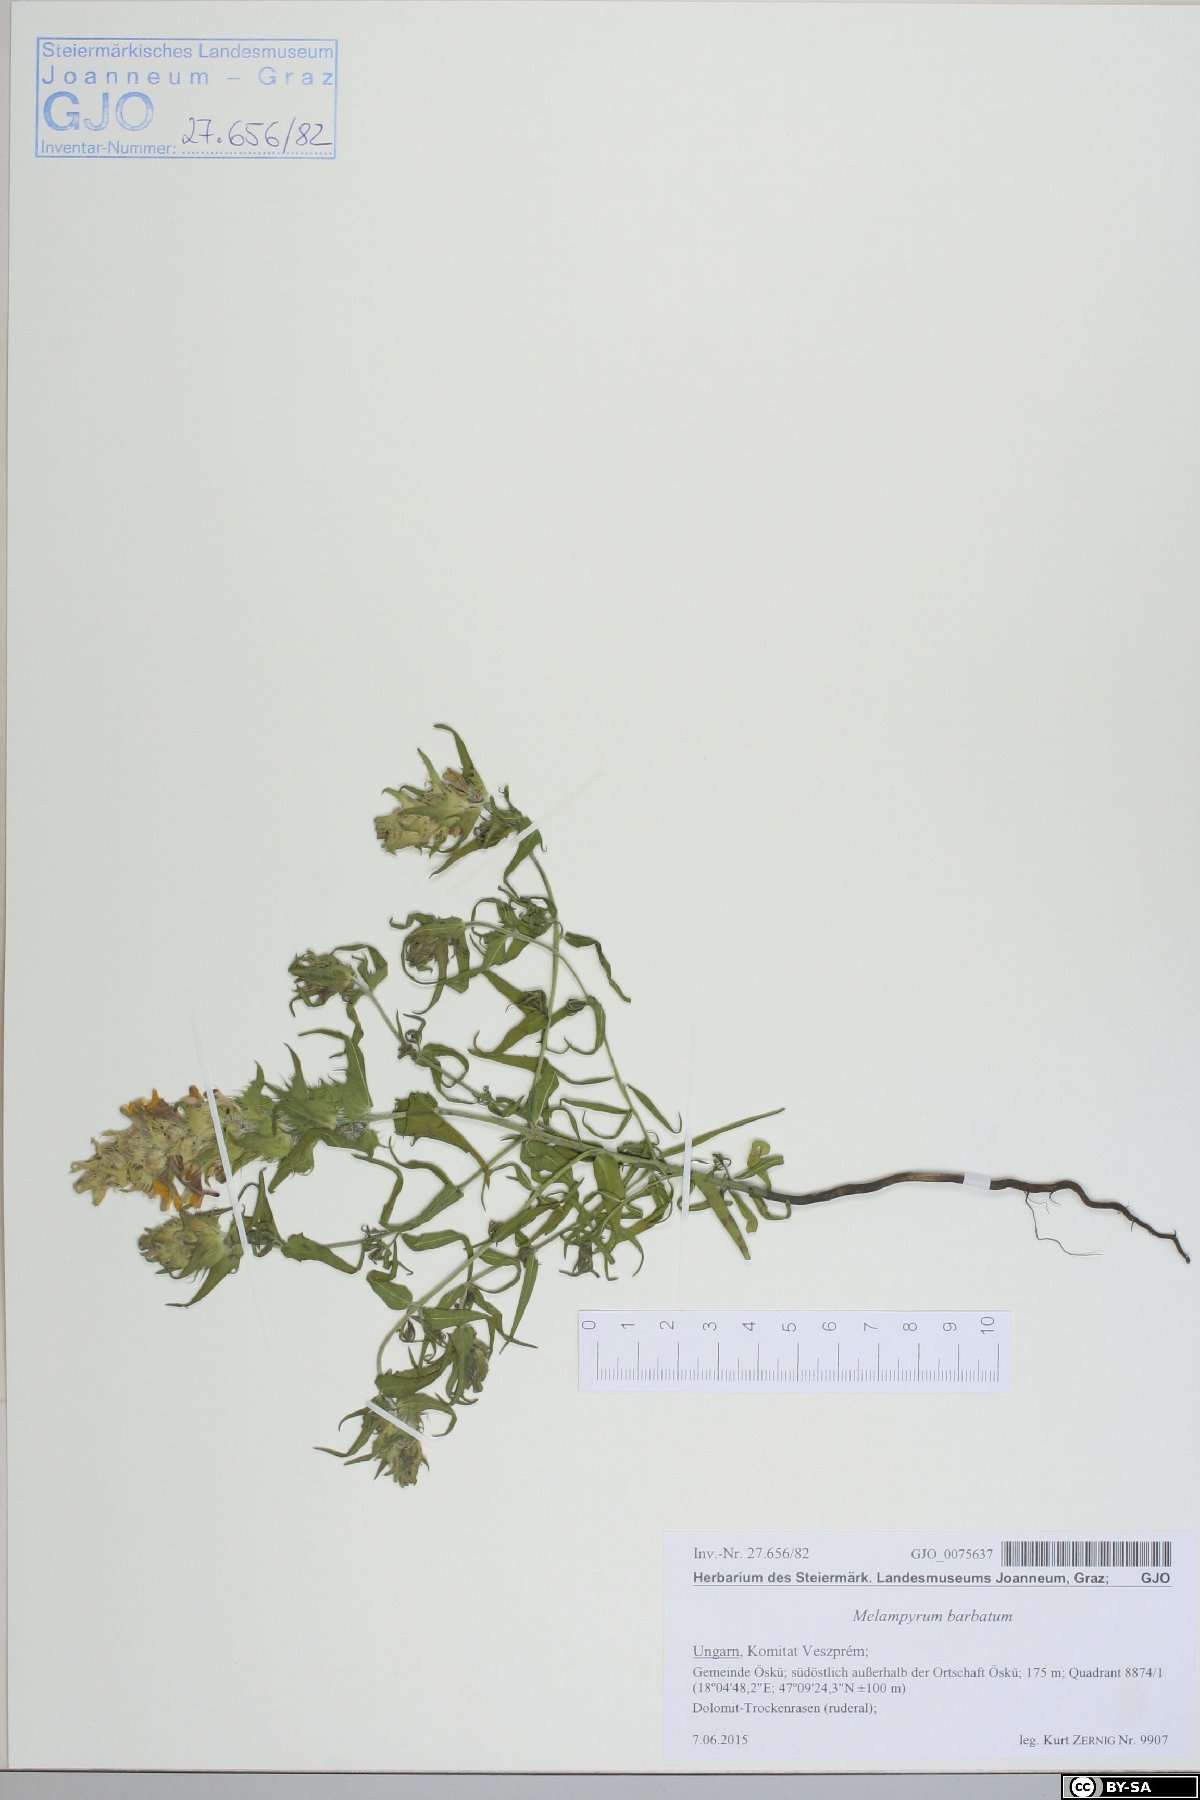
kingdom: Plantae
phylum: Tracheophyta
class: Magnoliopsida
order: Lamiales
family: Orobanchaceae
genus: Melampyrum
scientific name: Melampyrum barbatum
